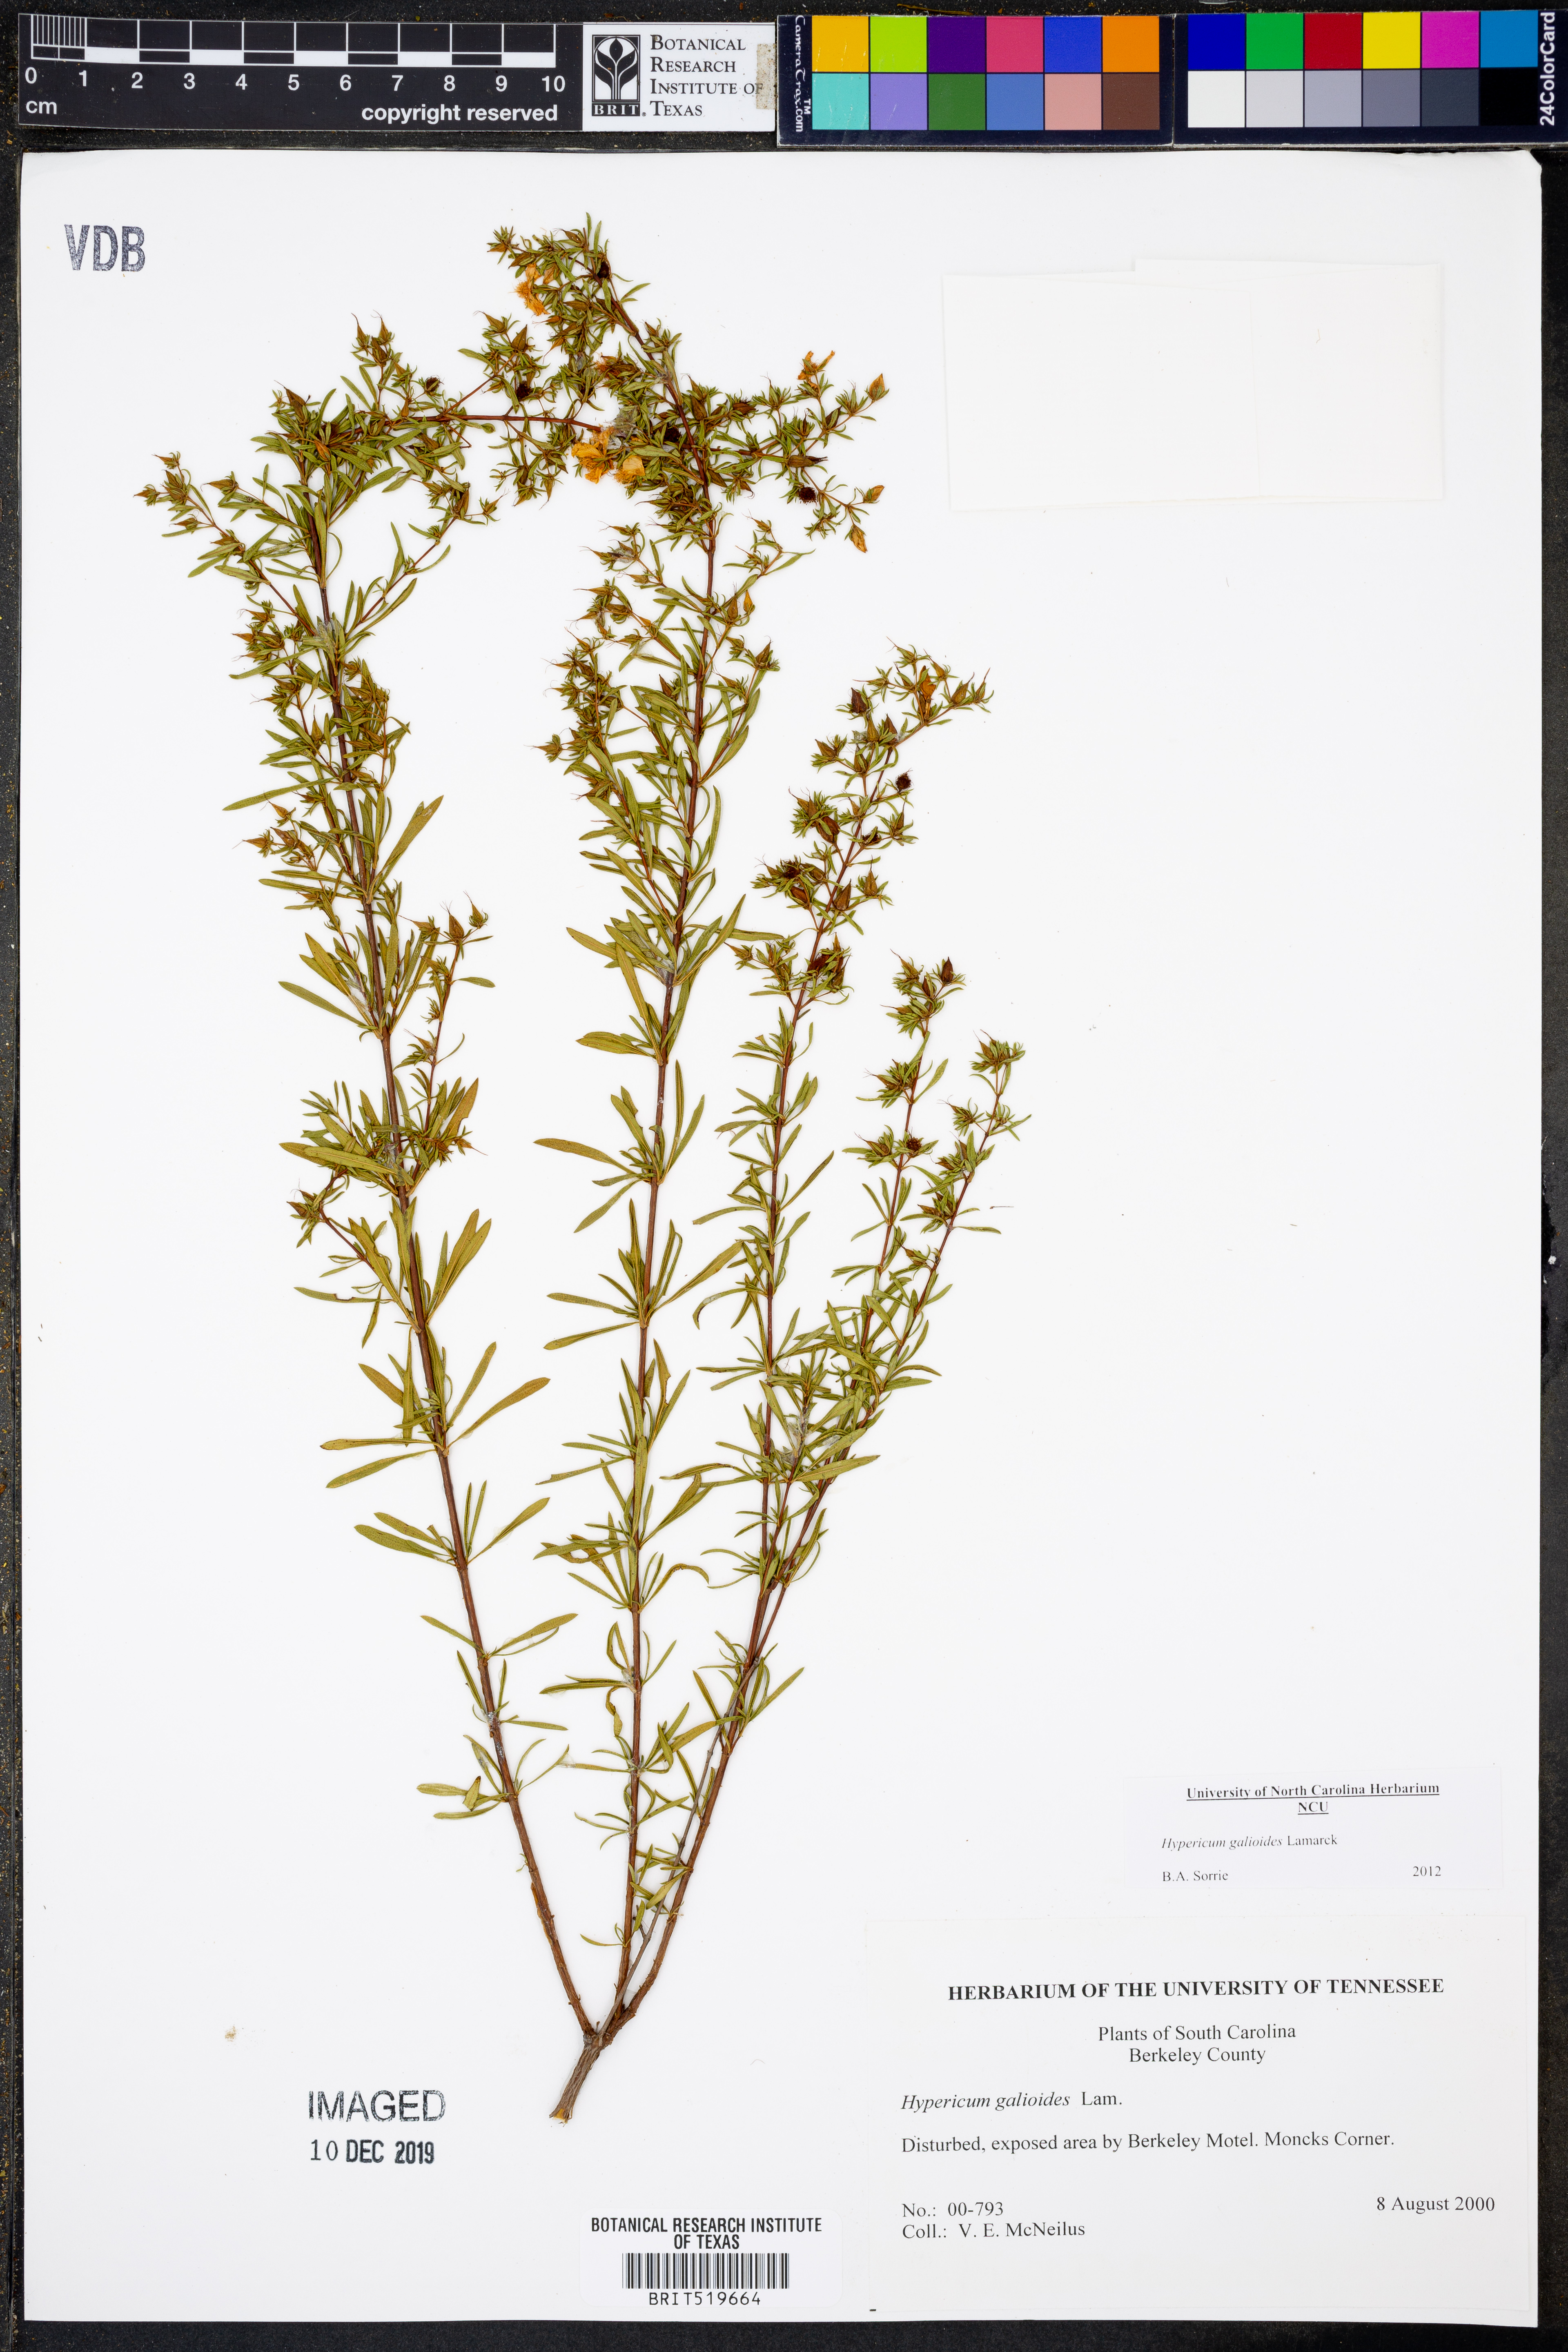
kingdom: Plantae
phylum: Tracheophyta
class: Magnoliopsida
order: Malpighiales
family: Hypericaceae
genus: Hypericum
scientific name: Hypericum galioides
